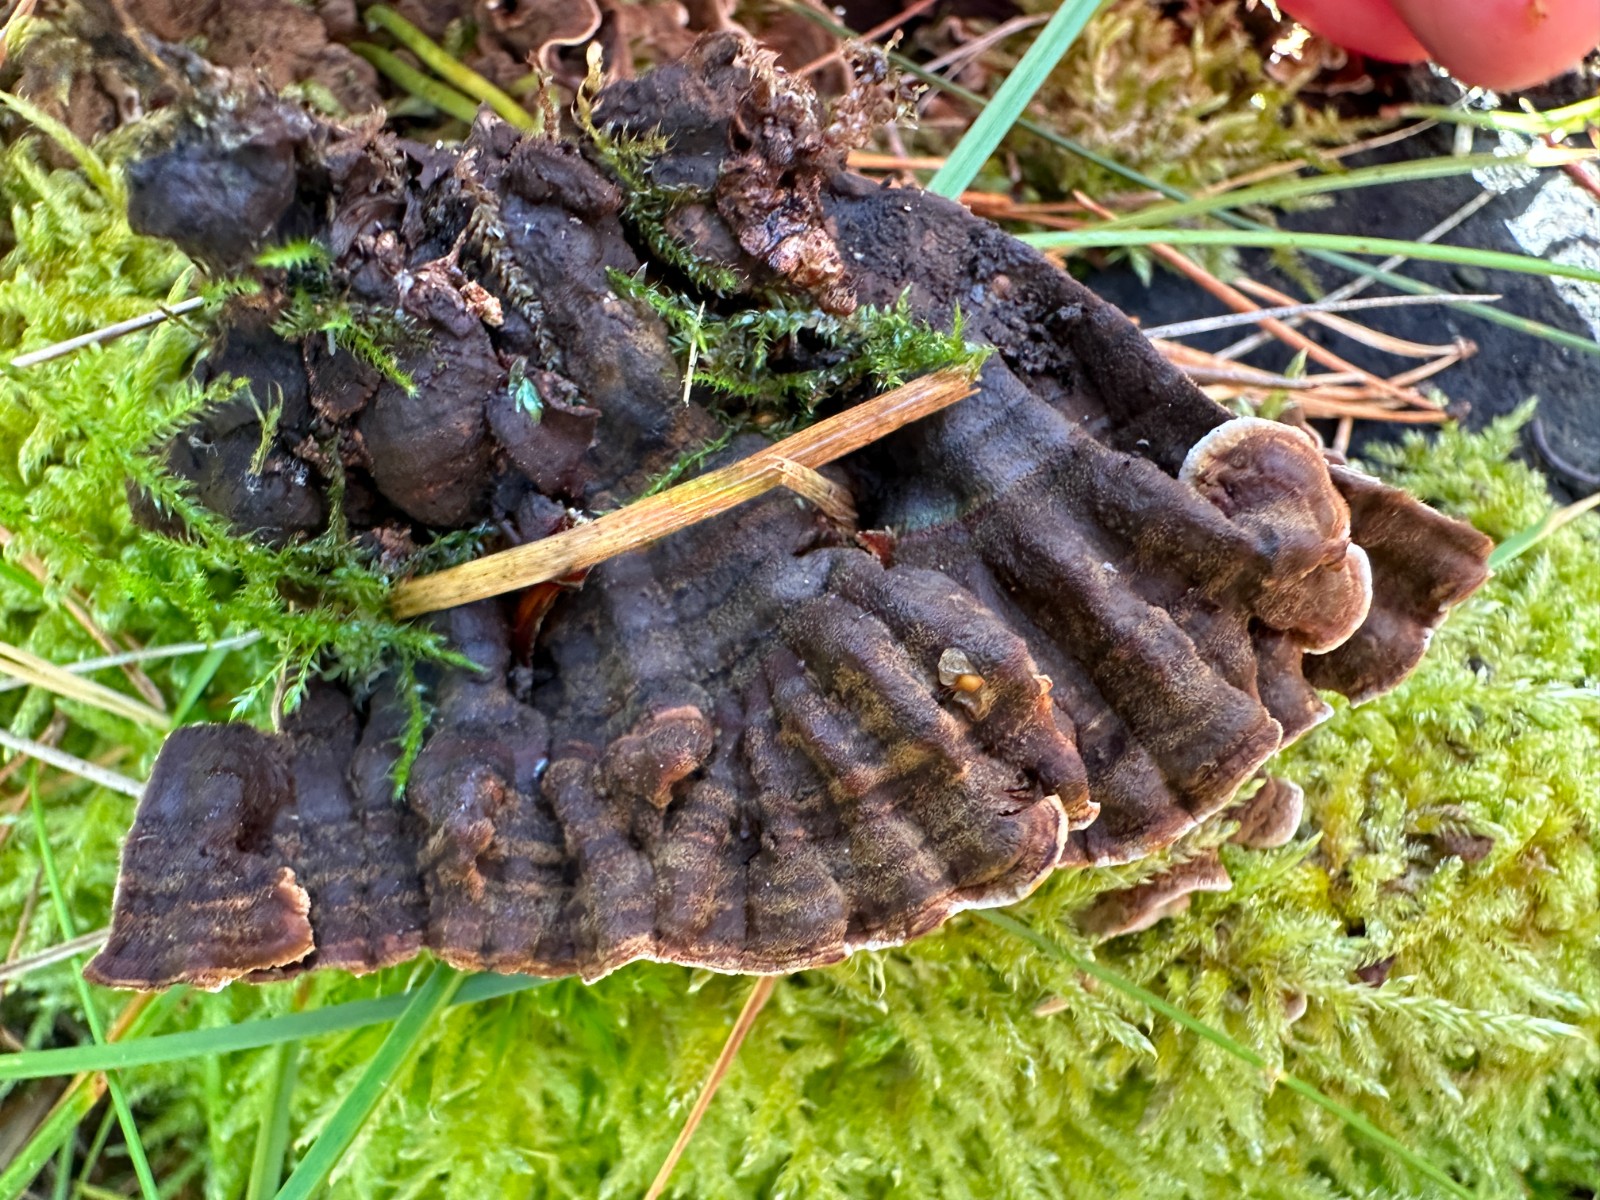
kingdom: Fungi
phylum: Basidiomycota
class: Agaricomycetes
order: Russulales
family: Hericiaceae
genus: Laxitextum
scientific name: Laxitextum bicolor
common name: tvefarvet filtskind
